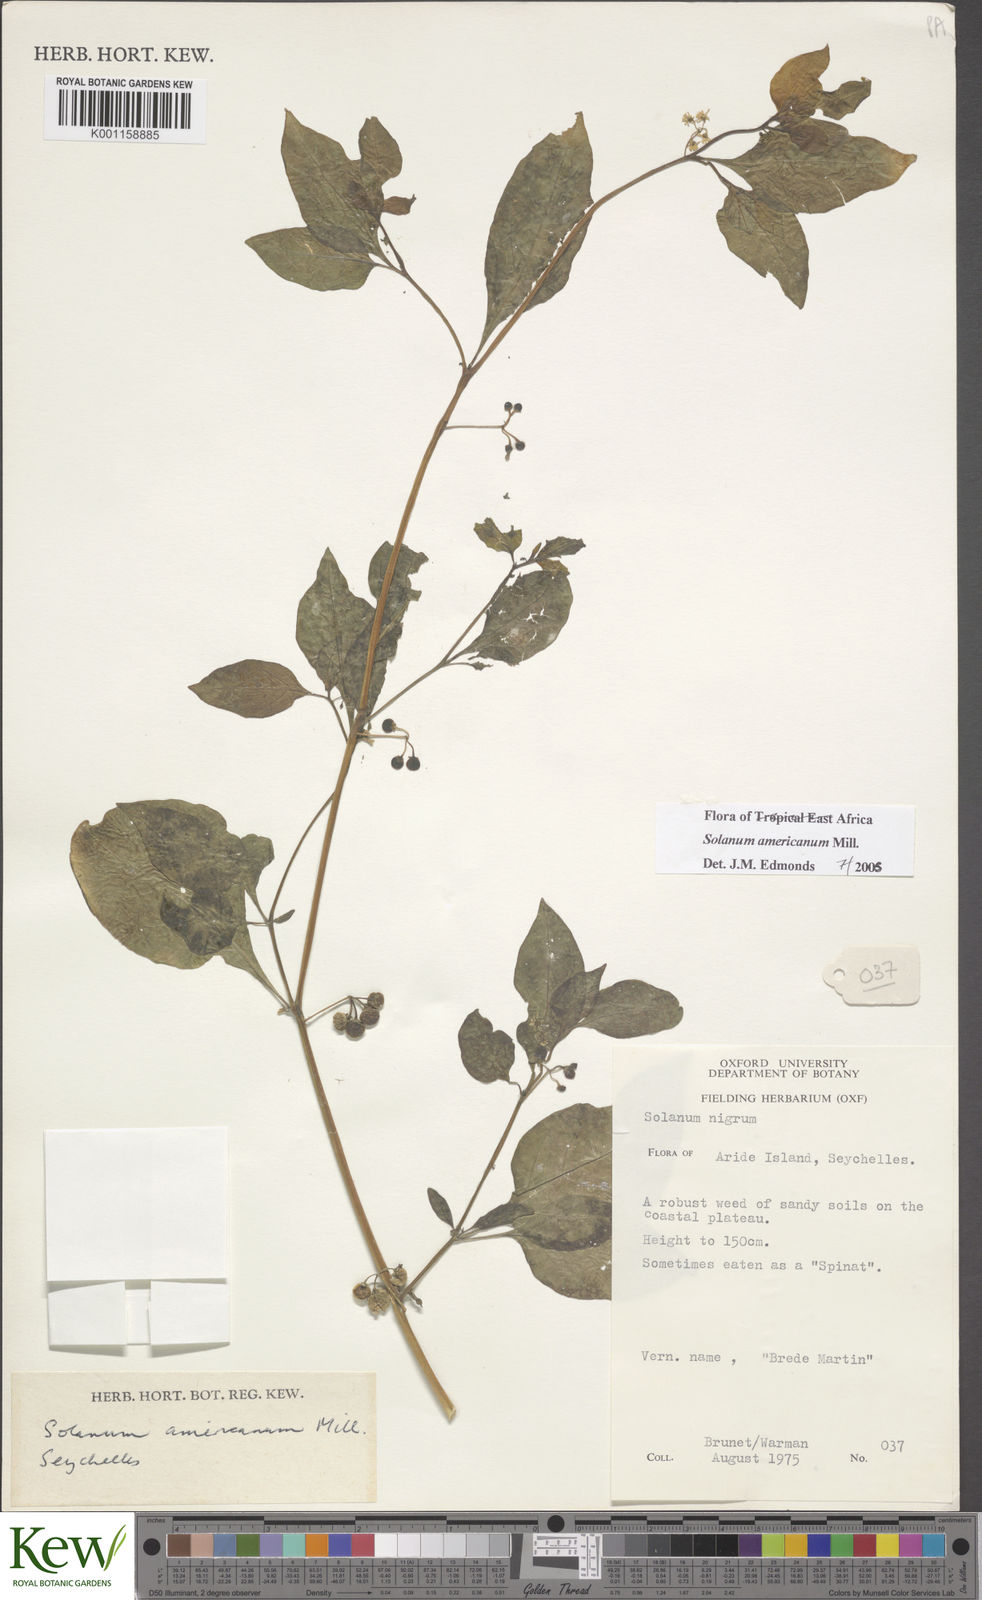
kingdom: Plantae
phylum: Tracheophyta
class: Magnoliopsida
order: Solanales
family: Solanaceae
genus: Solanum
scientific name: Solanum americanum
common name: American black nightshade
